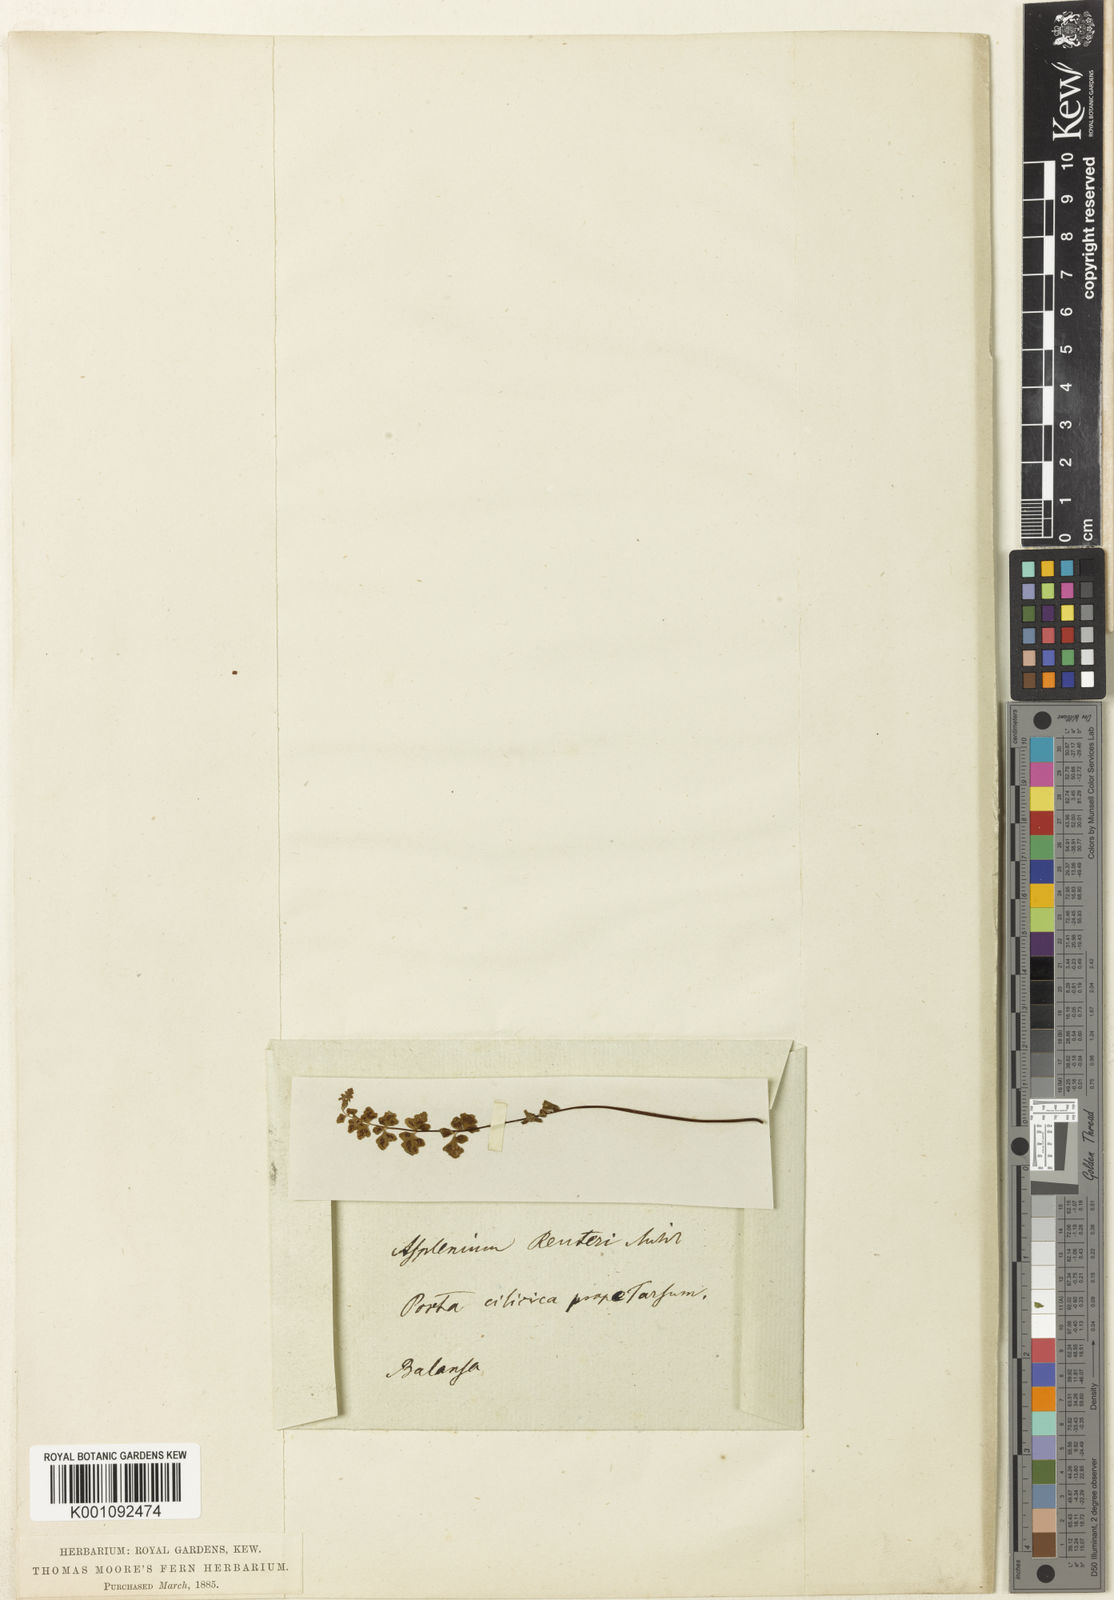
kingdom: Plantae
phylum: Tracheophyta
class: Polypodiopsida
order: Polypodiales
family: Aspleniaceae
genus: Asplenium
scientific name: Asplenium reuteri
